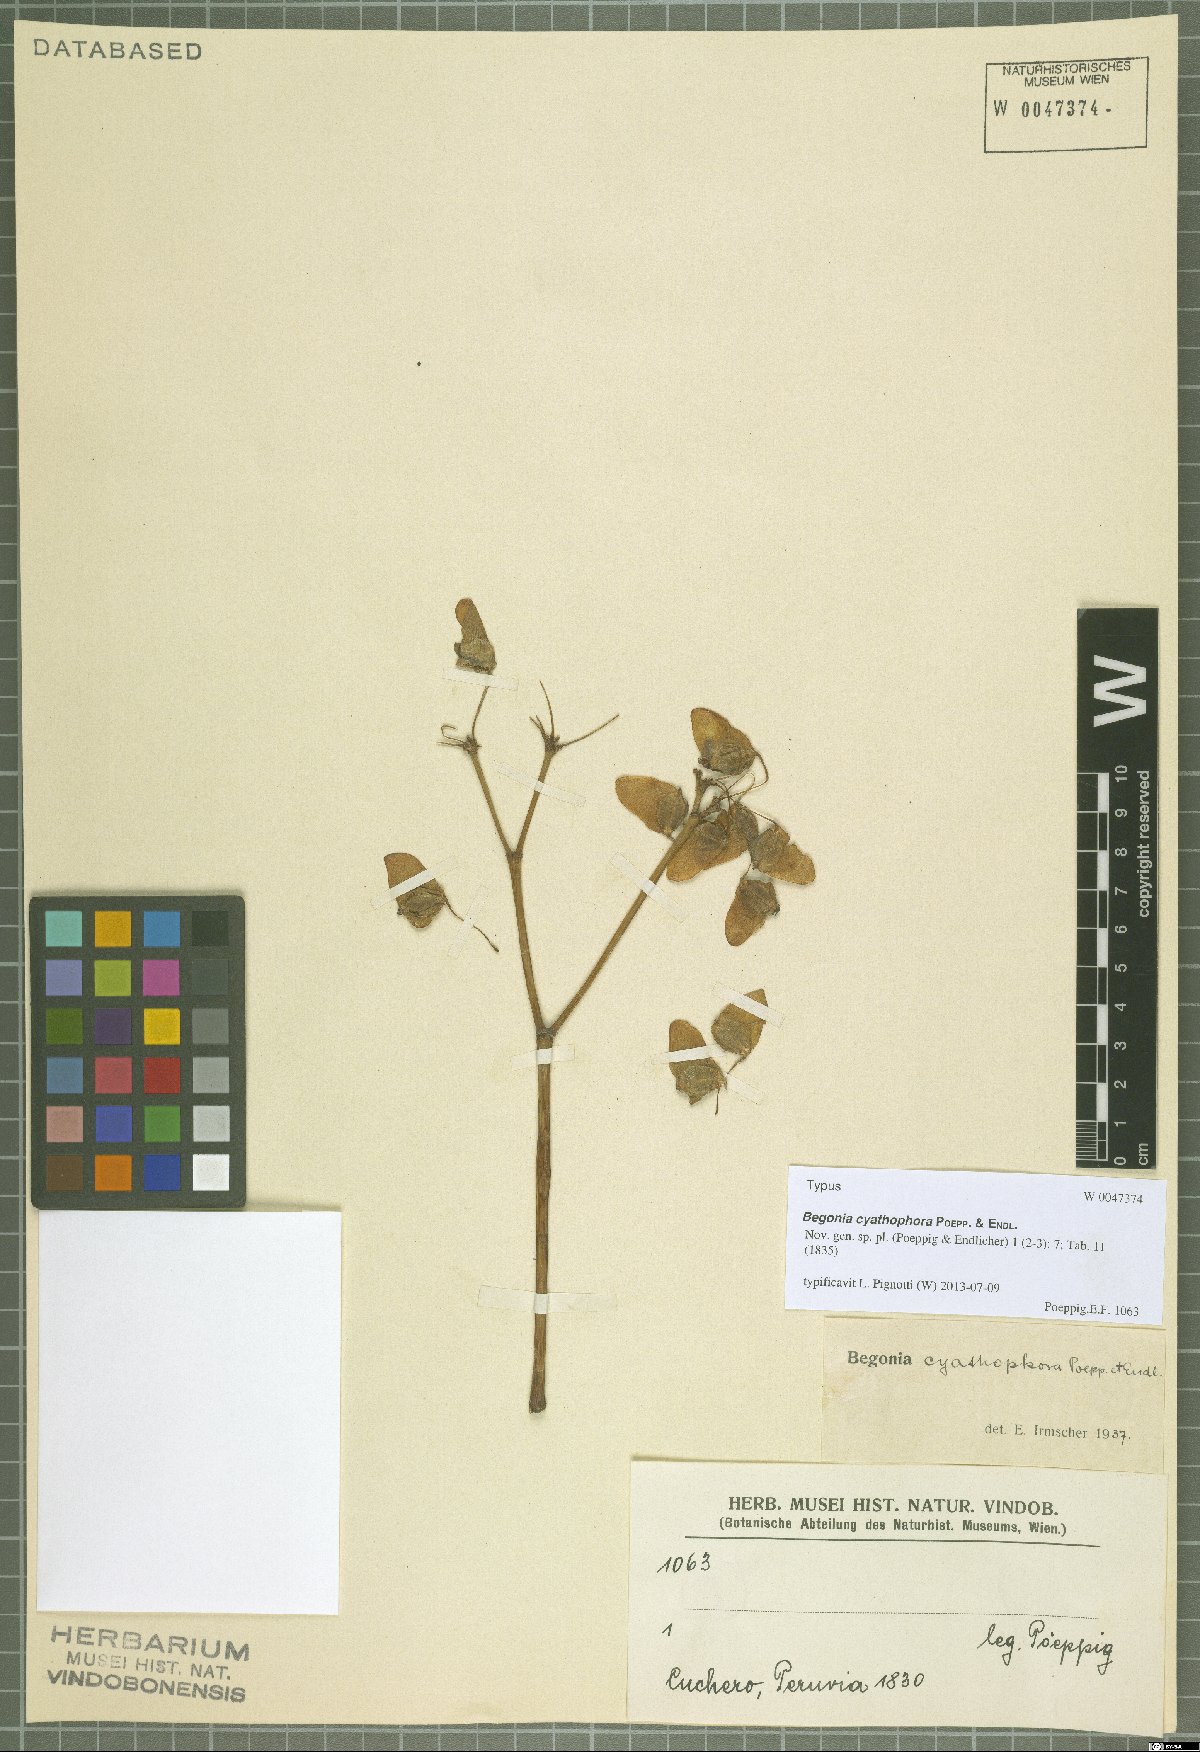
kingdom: Plantae
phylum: Tracheophyta
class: Magnoliopsida
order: Cucurbitales
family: Begoniaceae
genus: Begonia
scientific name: Begonia cyathophora
